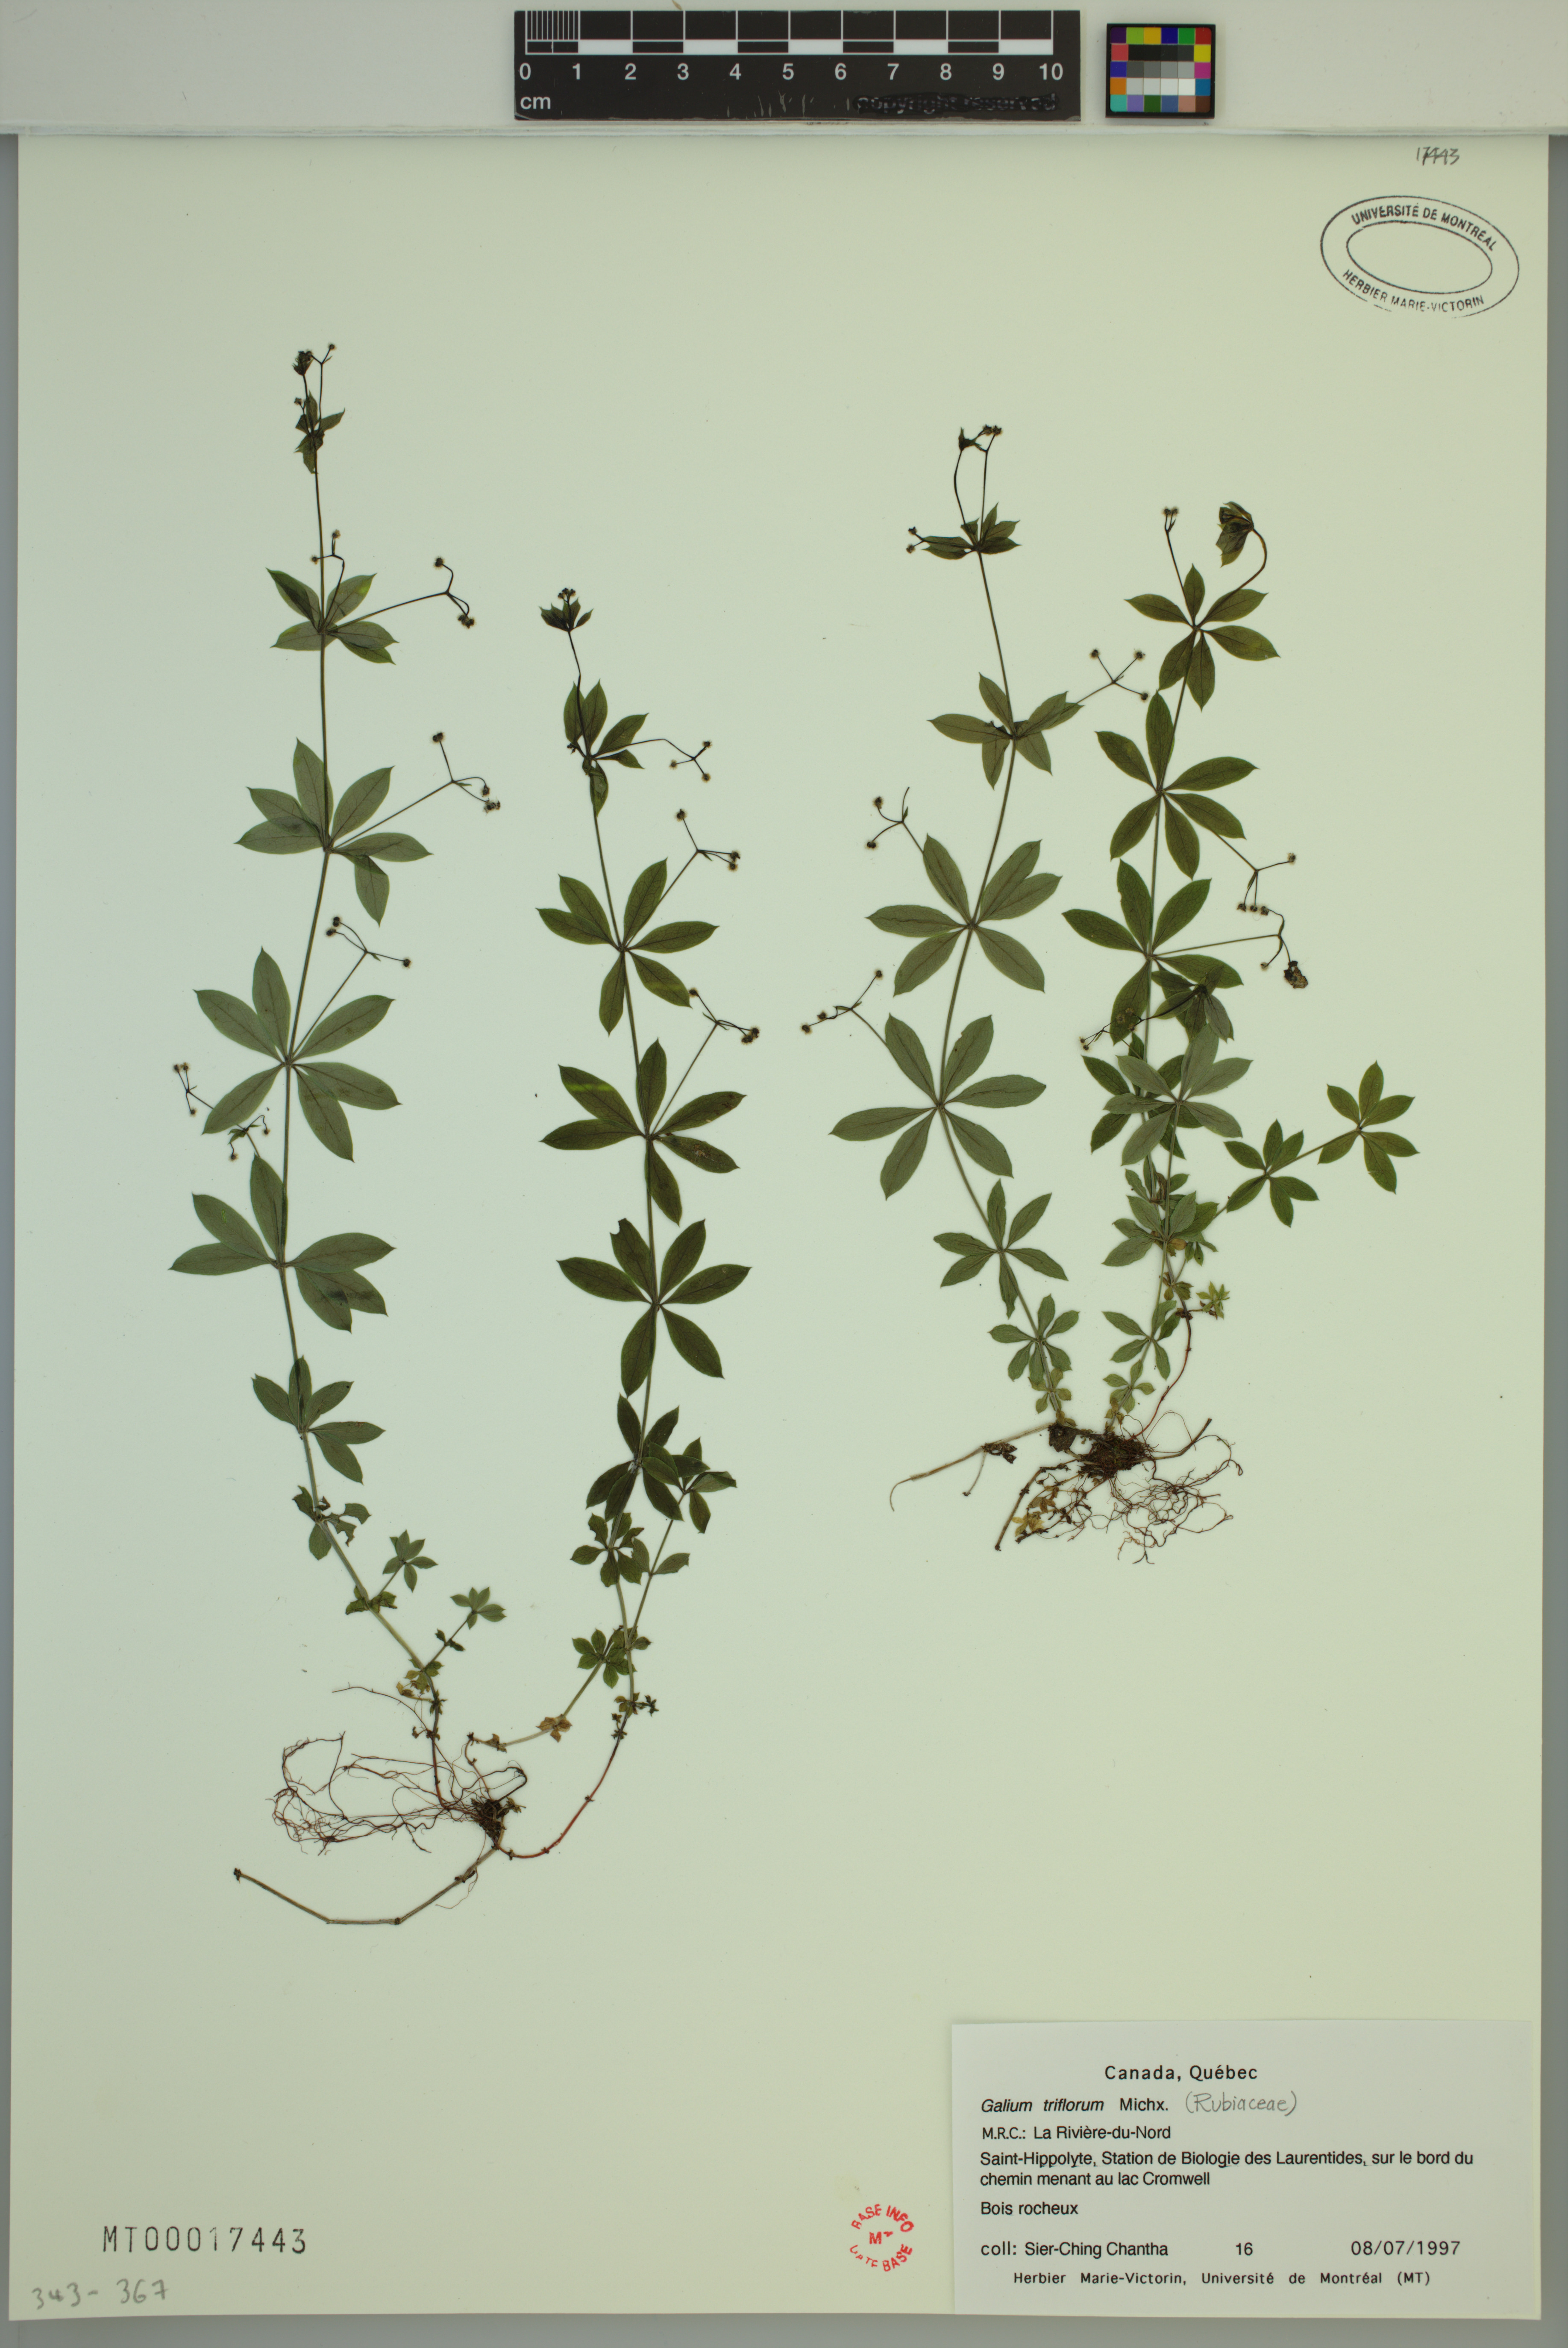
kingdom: Plantae
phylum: Tracheophyta
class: Magnoliopsida
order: Gentianales
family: Rubiaceae
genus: Galium
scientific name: Galium triflorum
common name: Fragrant bedstraw
